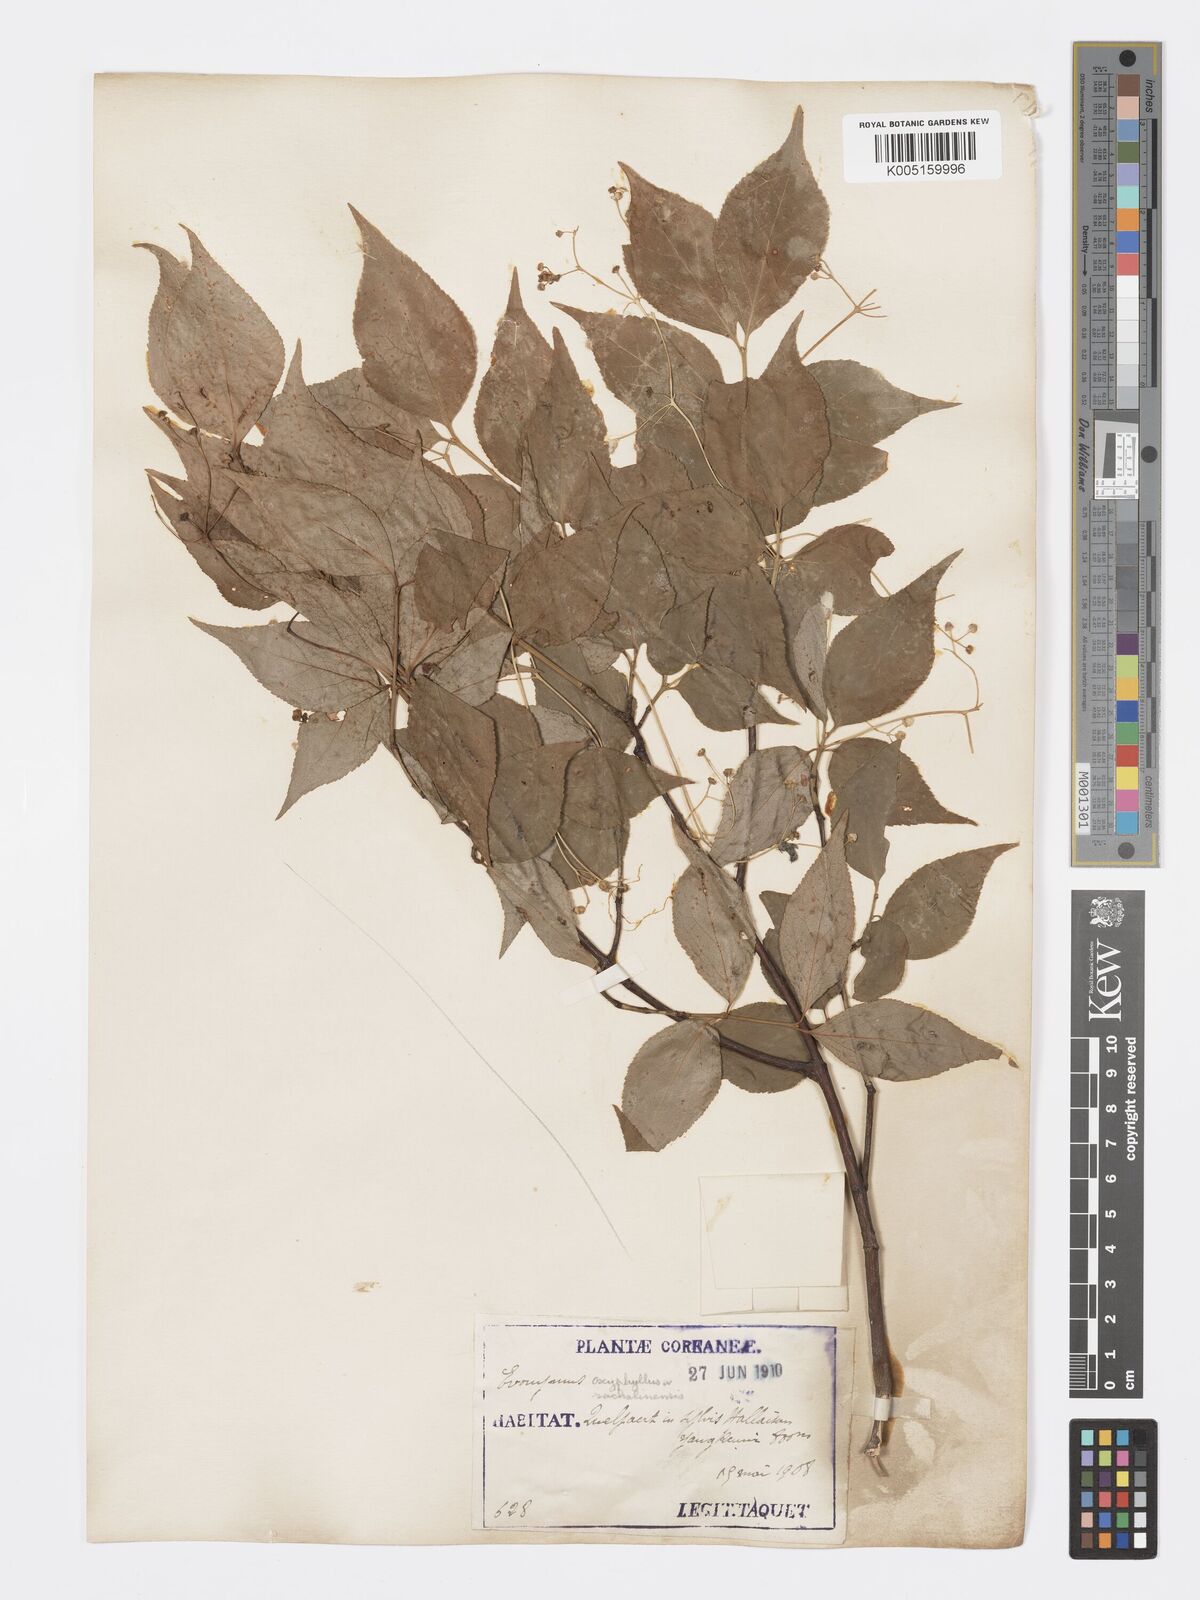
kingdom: Plantae
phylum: Tracheophyta
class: Magnoliopsida
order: Celastrales
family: Celastraceae
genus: Euonymus
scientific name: Euonymus sachalinensis
